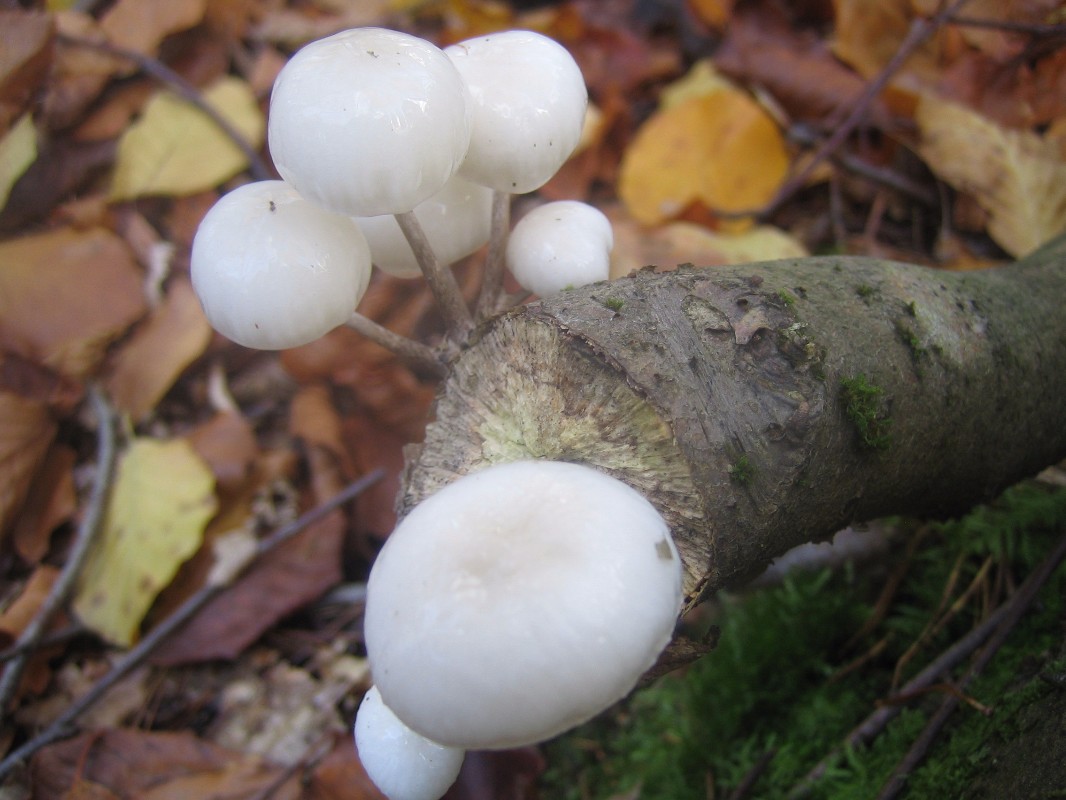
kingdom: Fungi
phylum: Basidiomycota
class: Agaricomycetes
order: Agaricales
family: Physalacriaceae
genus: Mucidula
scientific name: Mucidula mucida
